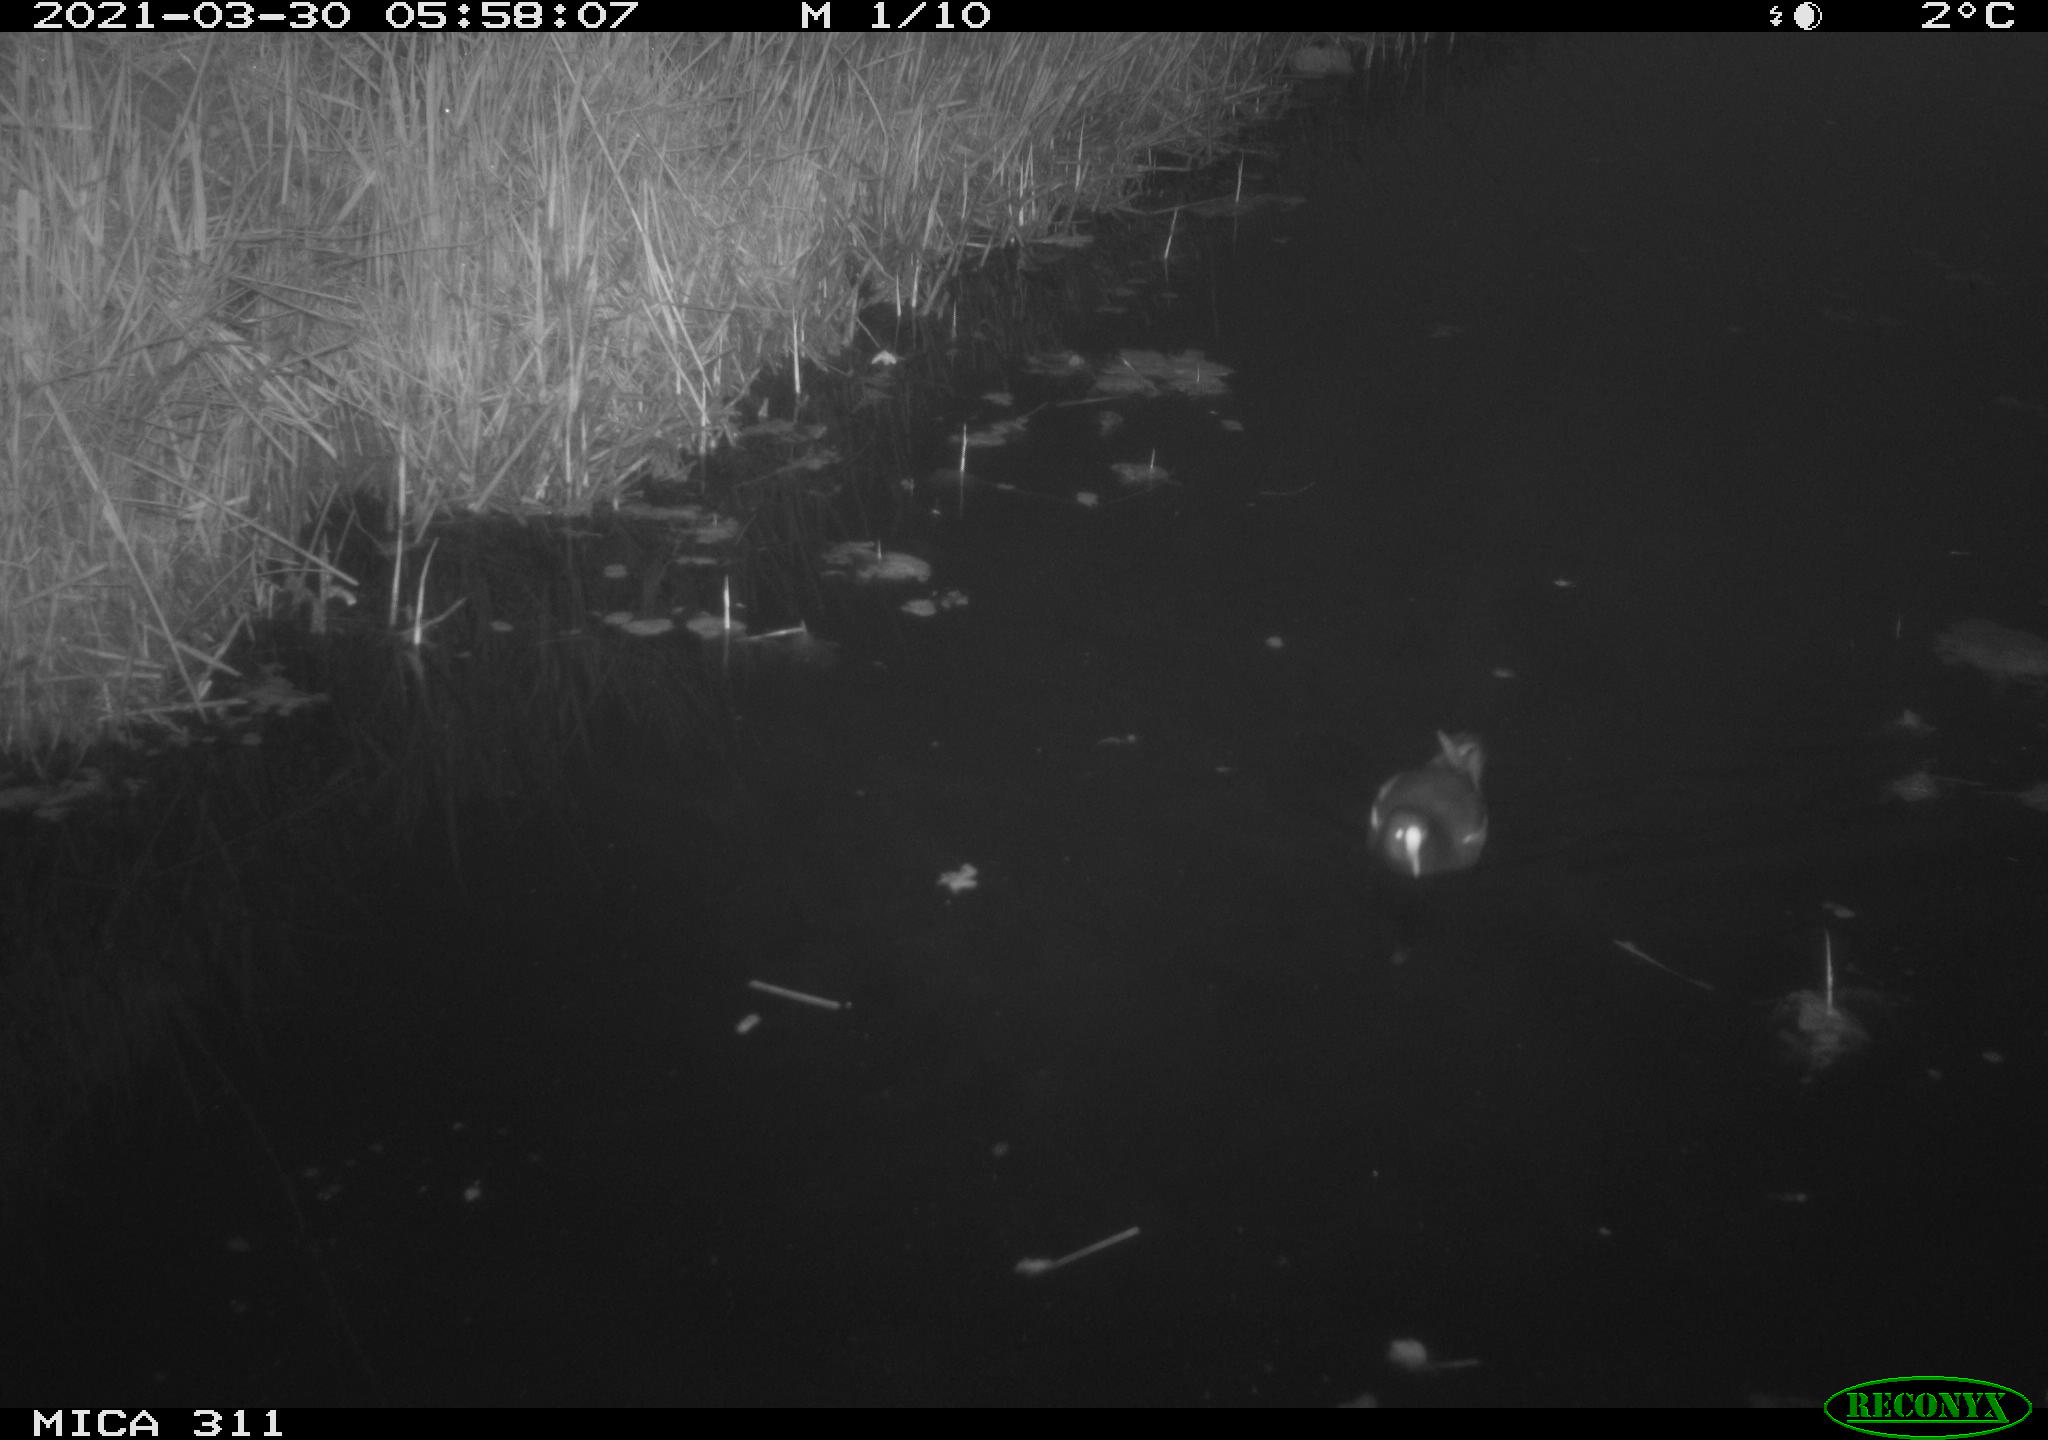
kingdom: Animalia
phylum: Chordata
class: Aves
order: Gruiformes
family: Rallidae
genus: Gallinula
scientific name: Gallinula chloropus
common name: Common moorhen
